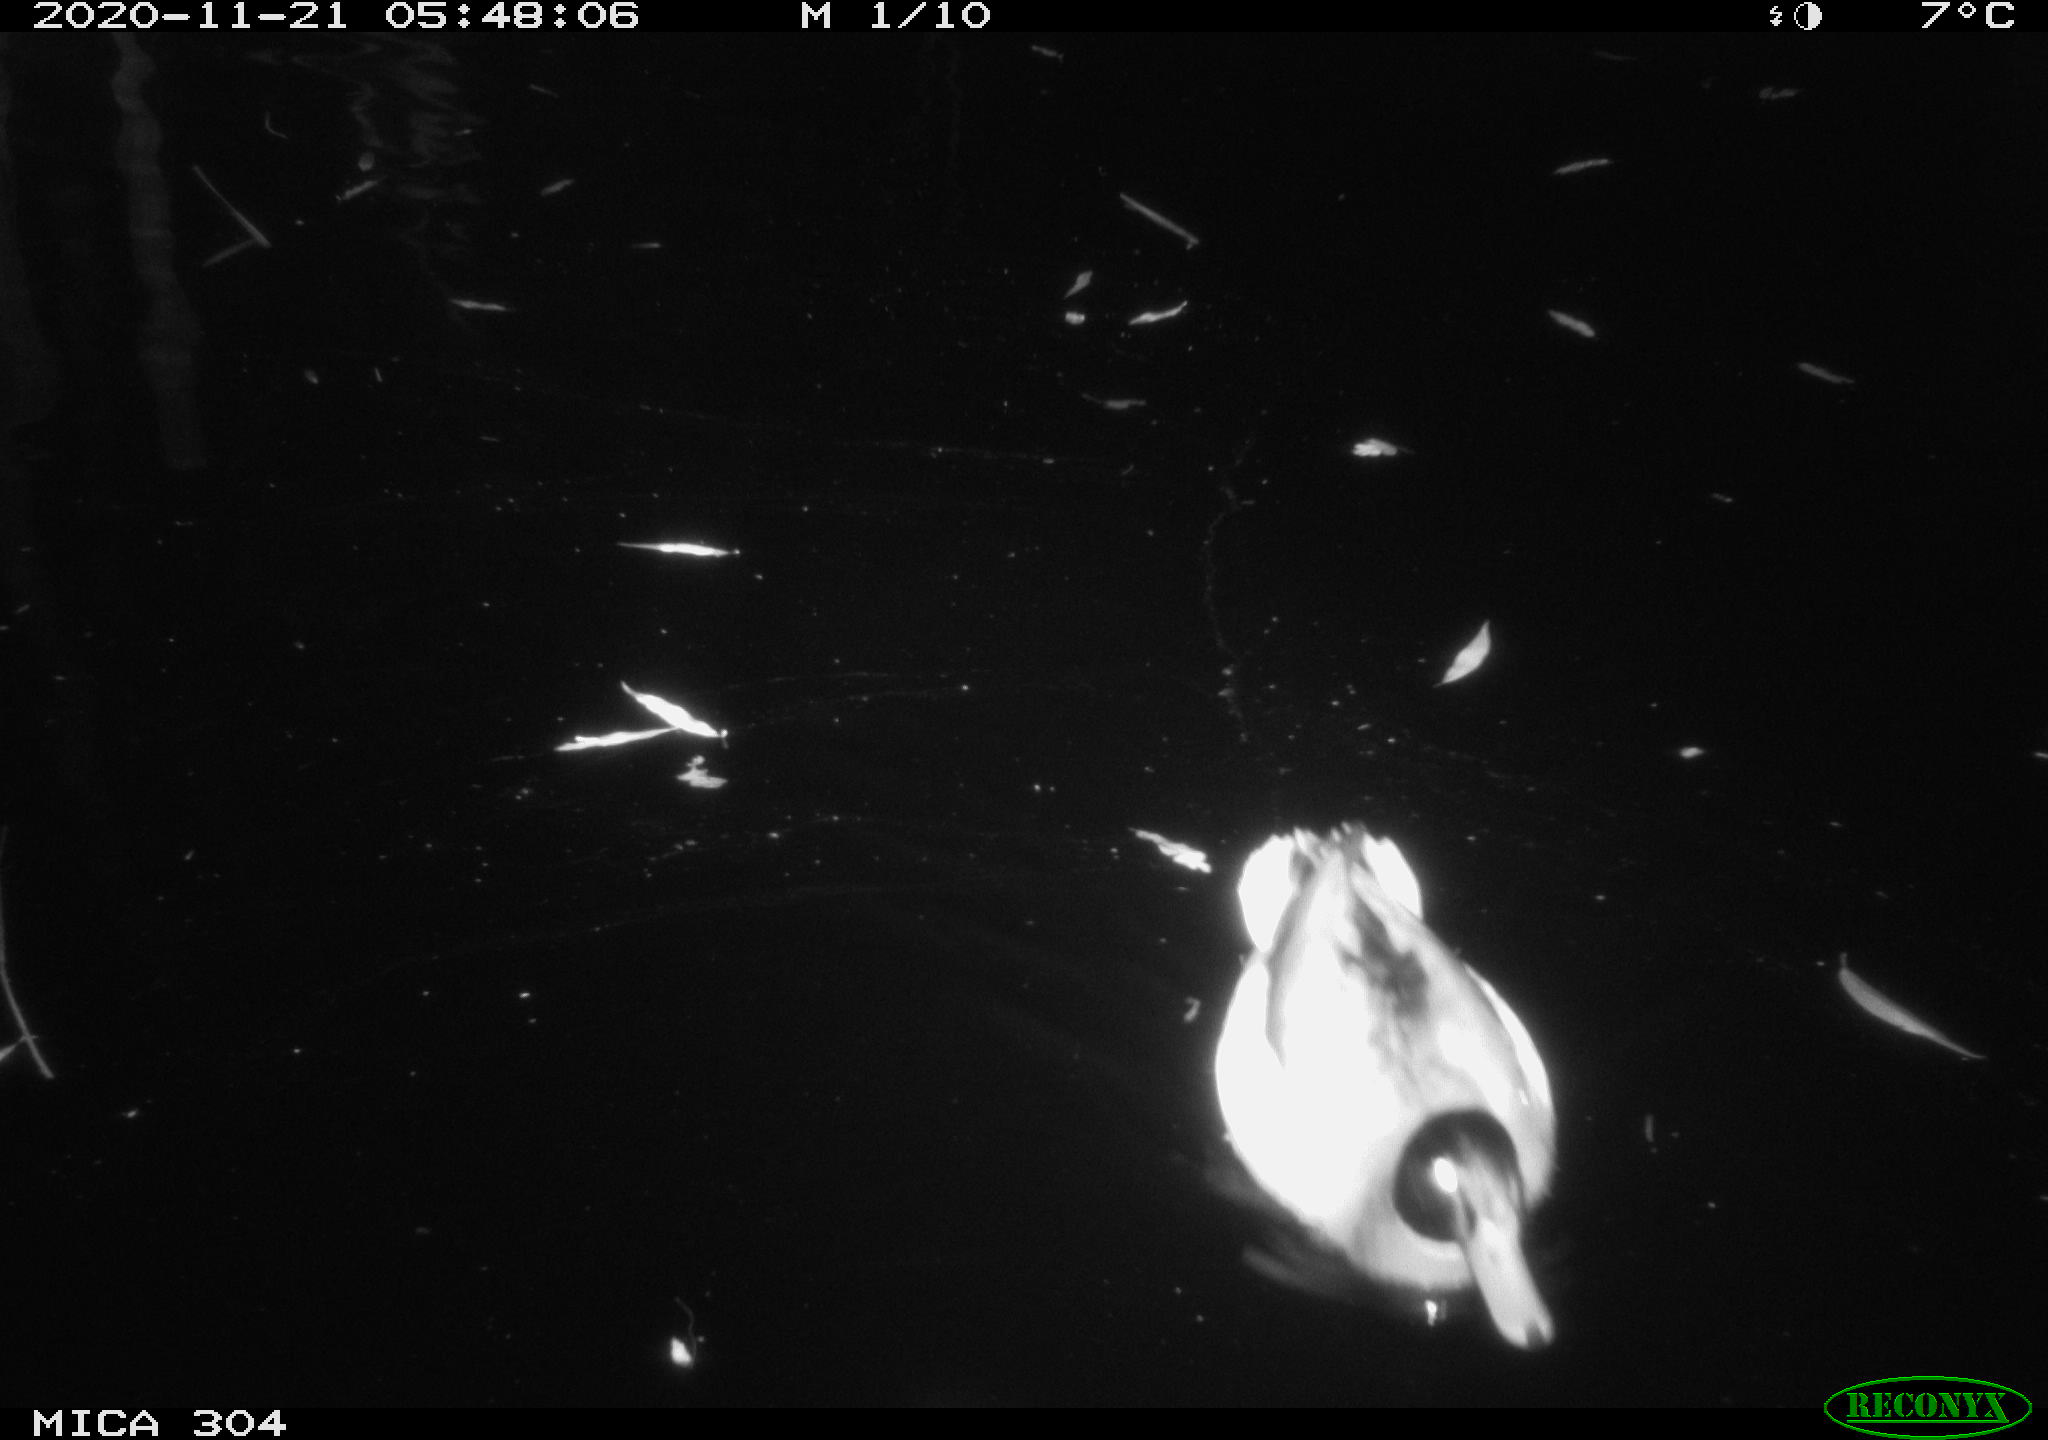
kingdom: Animalia
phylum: Chordata
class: Aves
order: Anseriformes
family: Anatidae
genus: Anas
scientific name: Anas platyrhynchos
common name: Mallard
